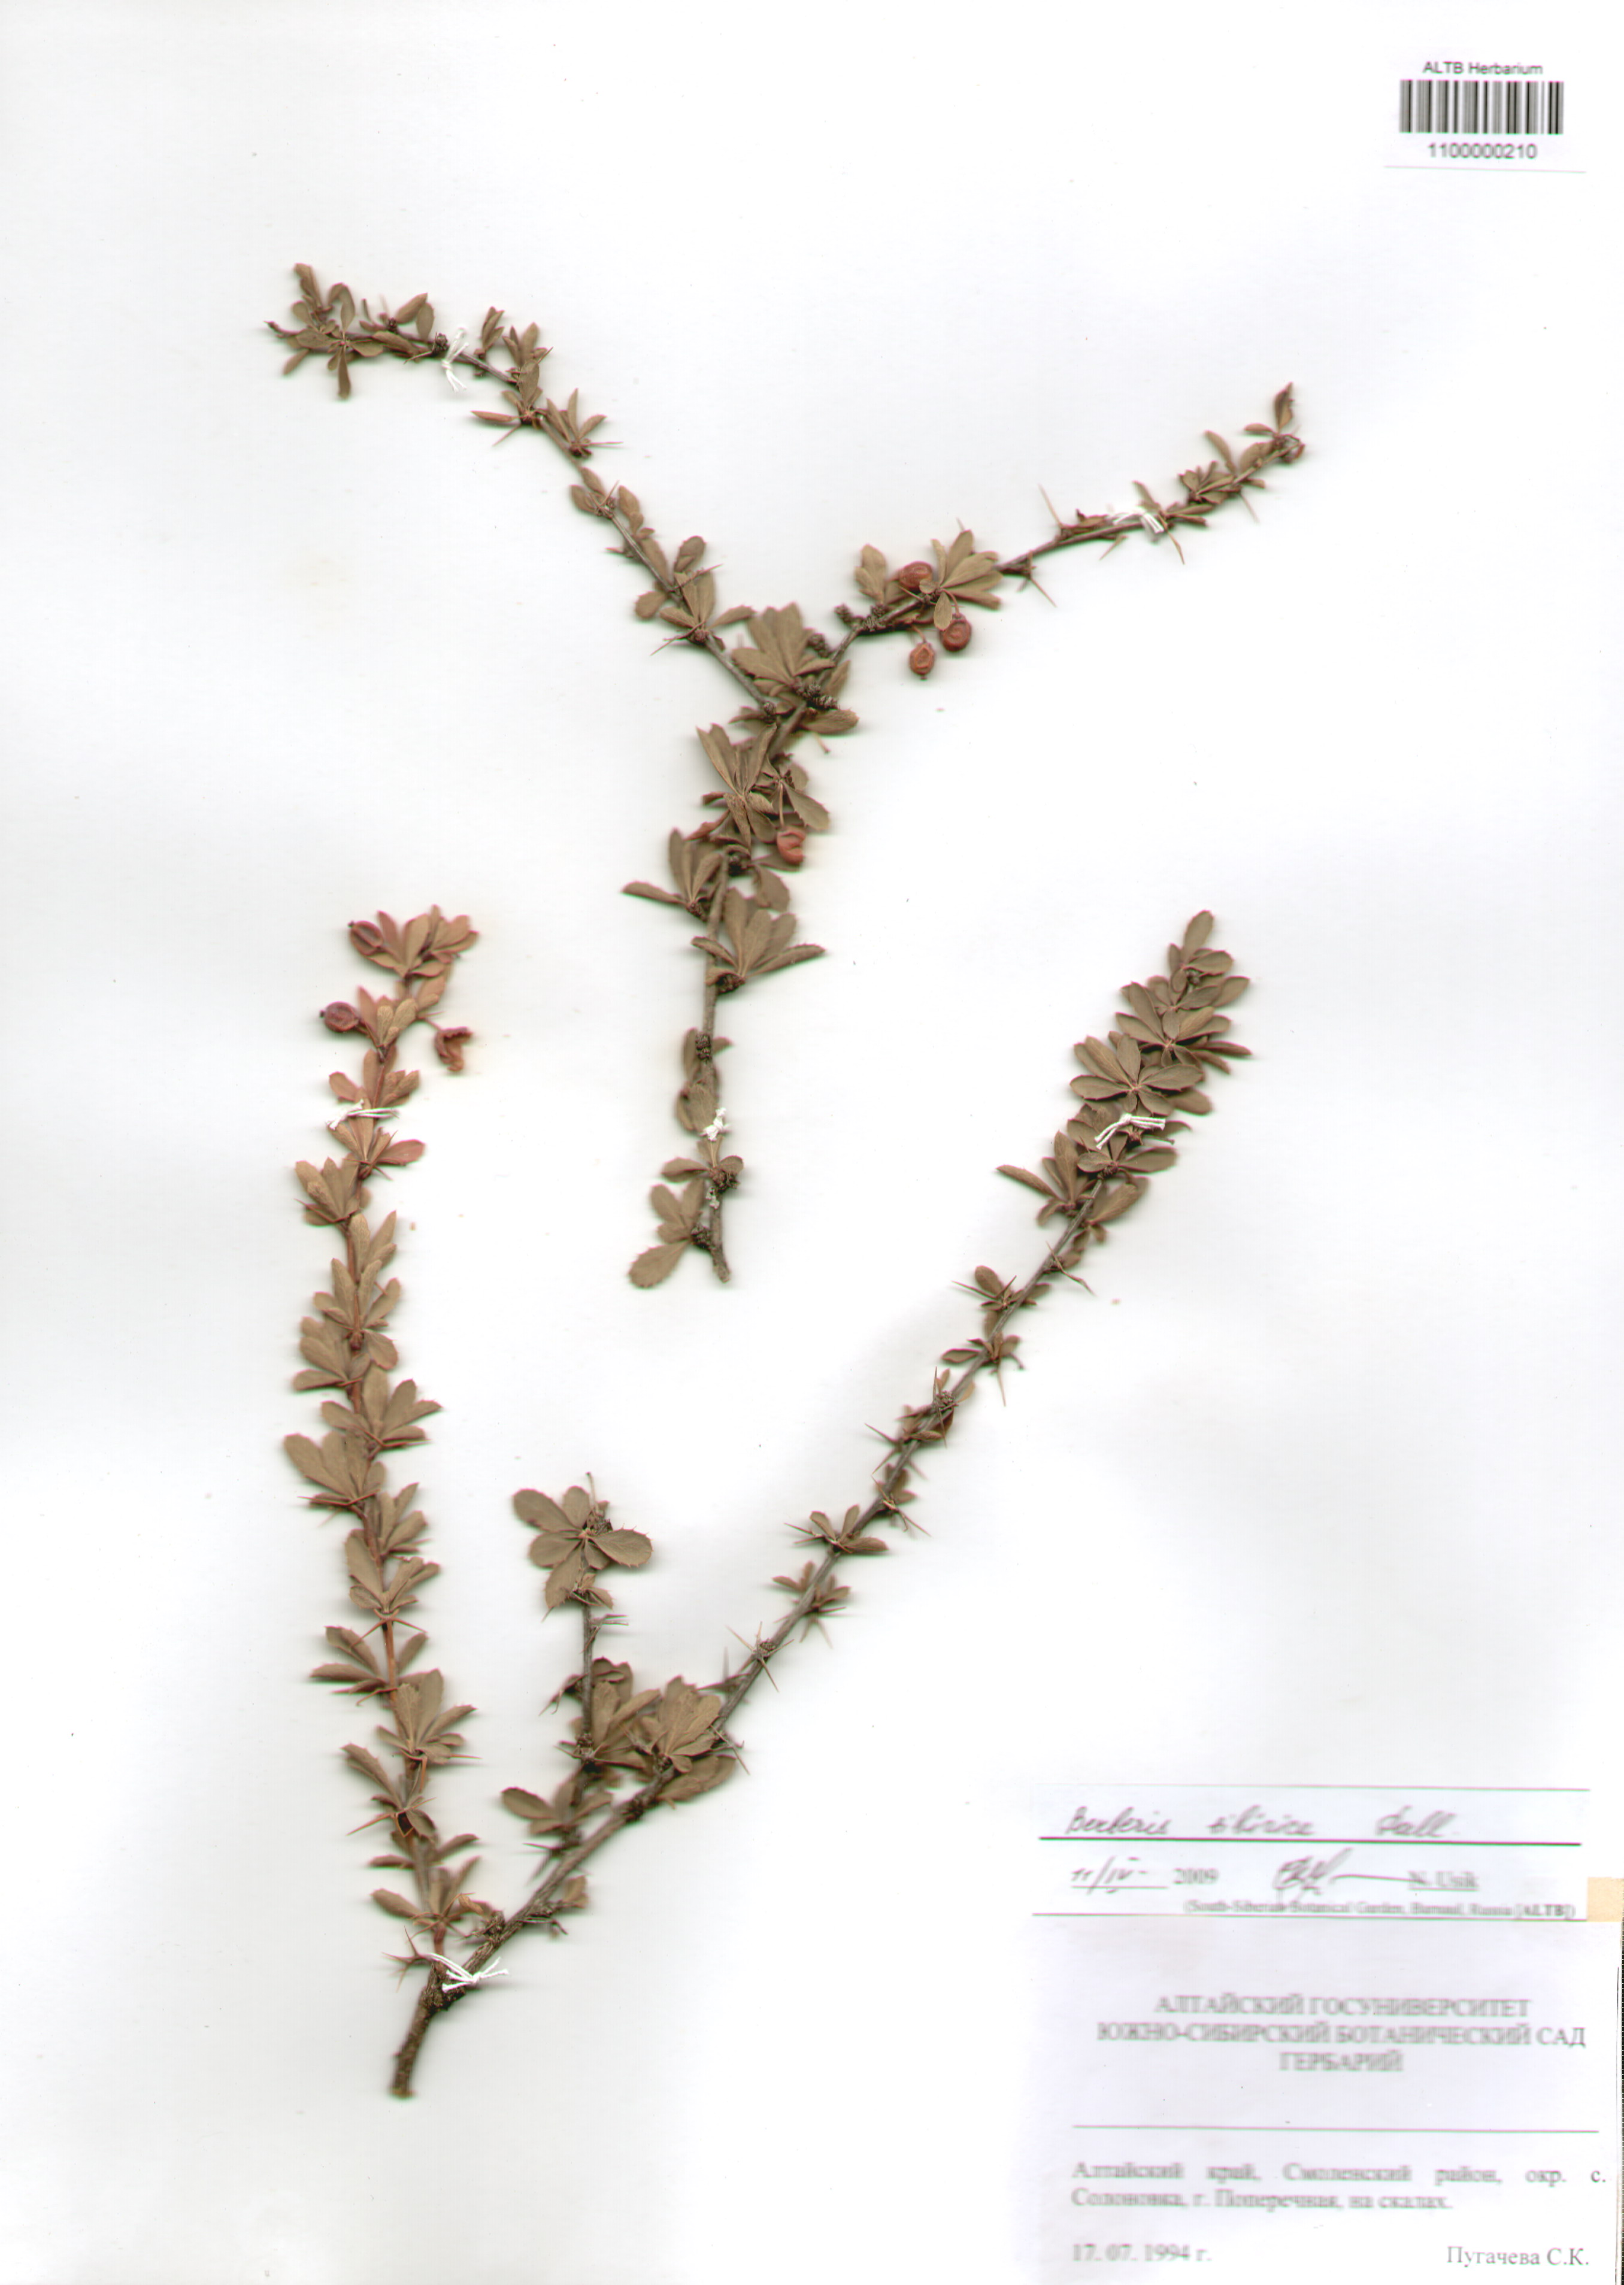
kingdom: Plantae
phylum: Tracheophyta
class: Magnoliopsida
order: Ranunculales
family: Berberidaceae
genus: Berberis
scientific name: Berberis sibirica
